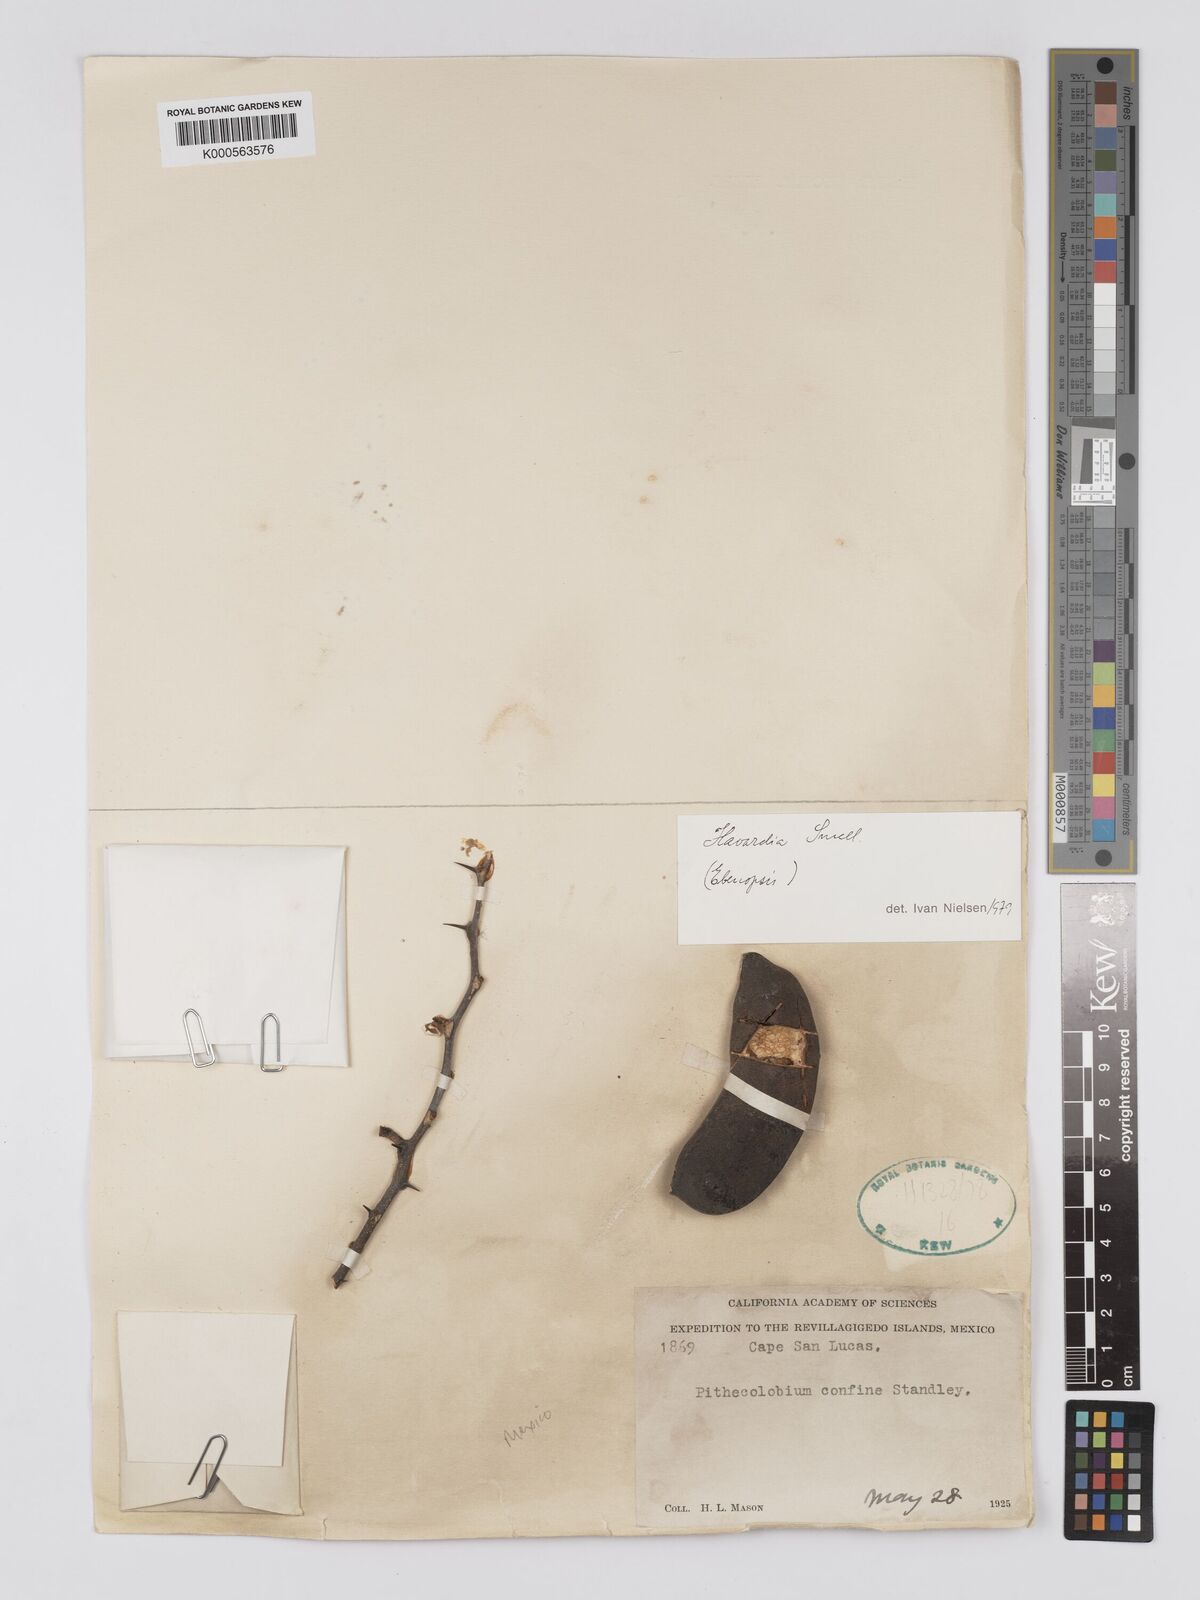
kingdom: Plantae
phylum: Tracheophyta
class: Magnoliopsida
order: Fabales
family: Fabaceae
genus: Chloroleucon
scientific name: Chloroleucon
